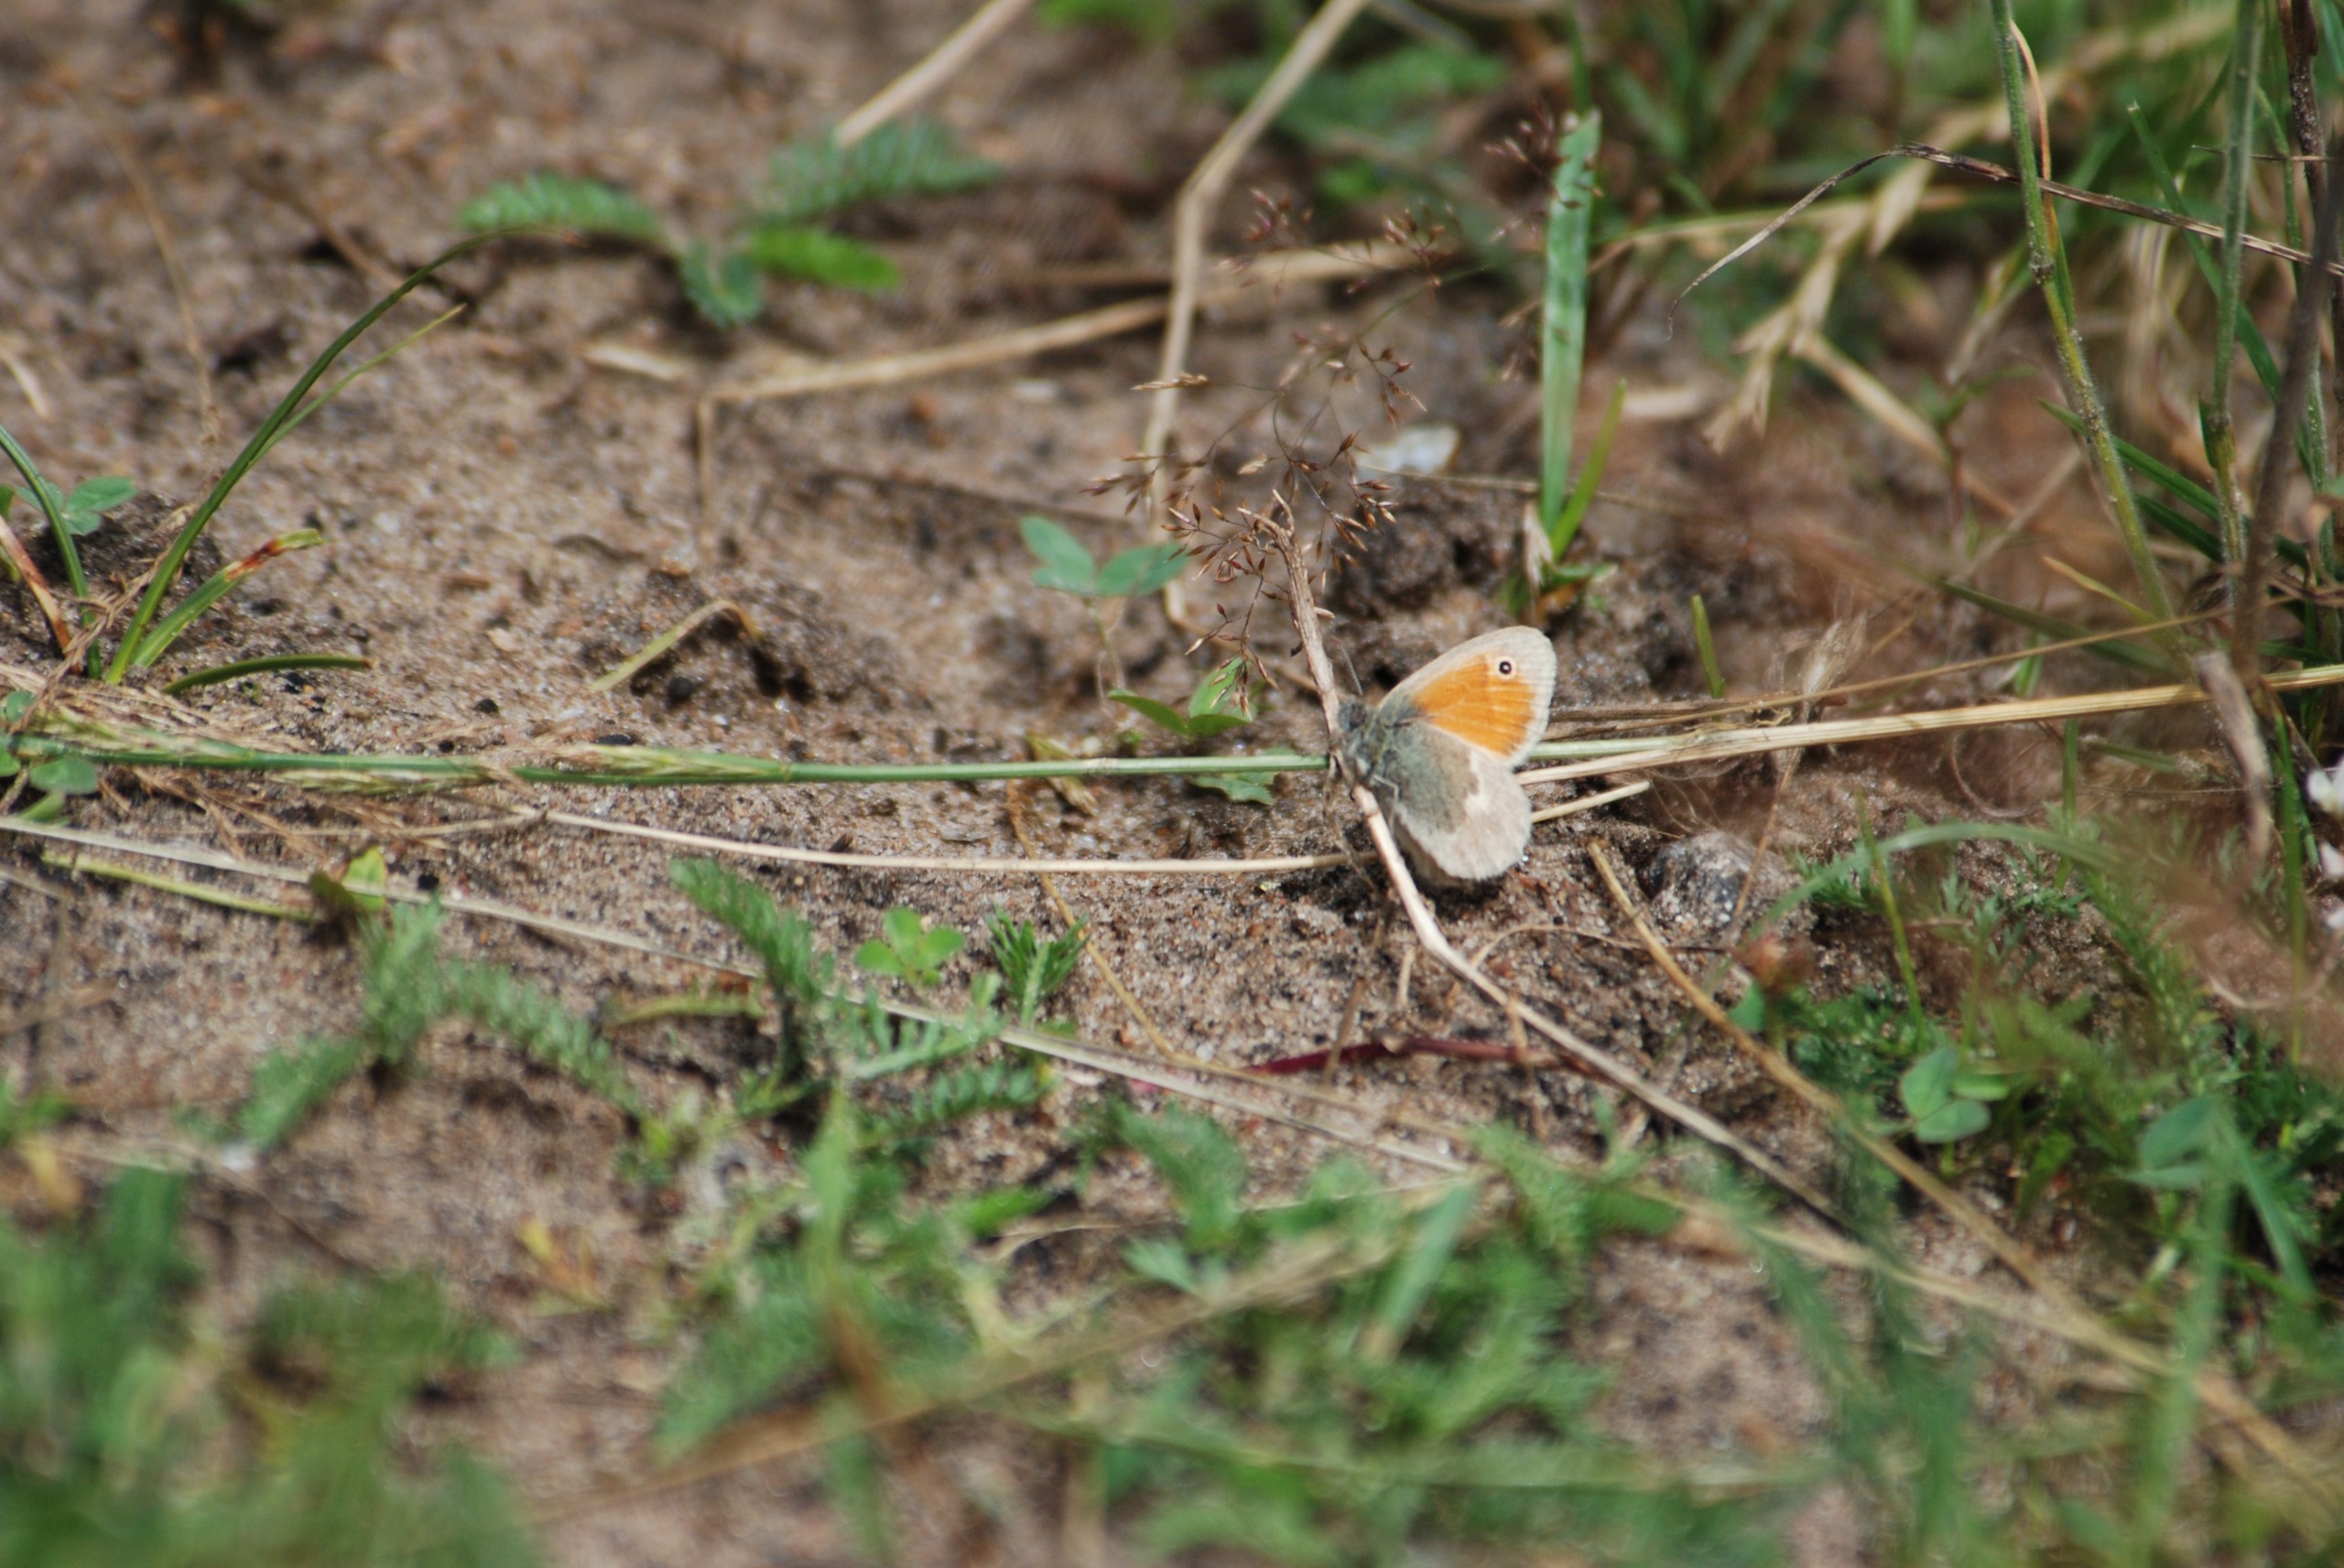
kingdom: Animalia
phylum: Arthropoda
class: Insecta
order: Lepidoptera
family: Nymphalidae
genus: Coenonympha
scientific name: Coenonympha pamphilus
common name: Okkergul randøje
